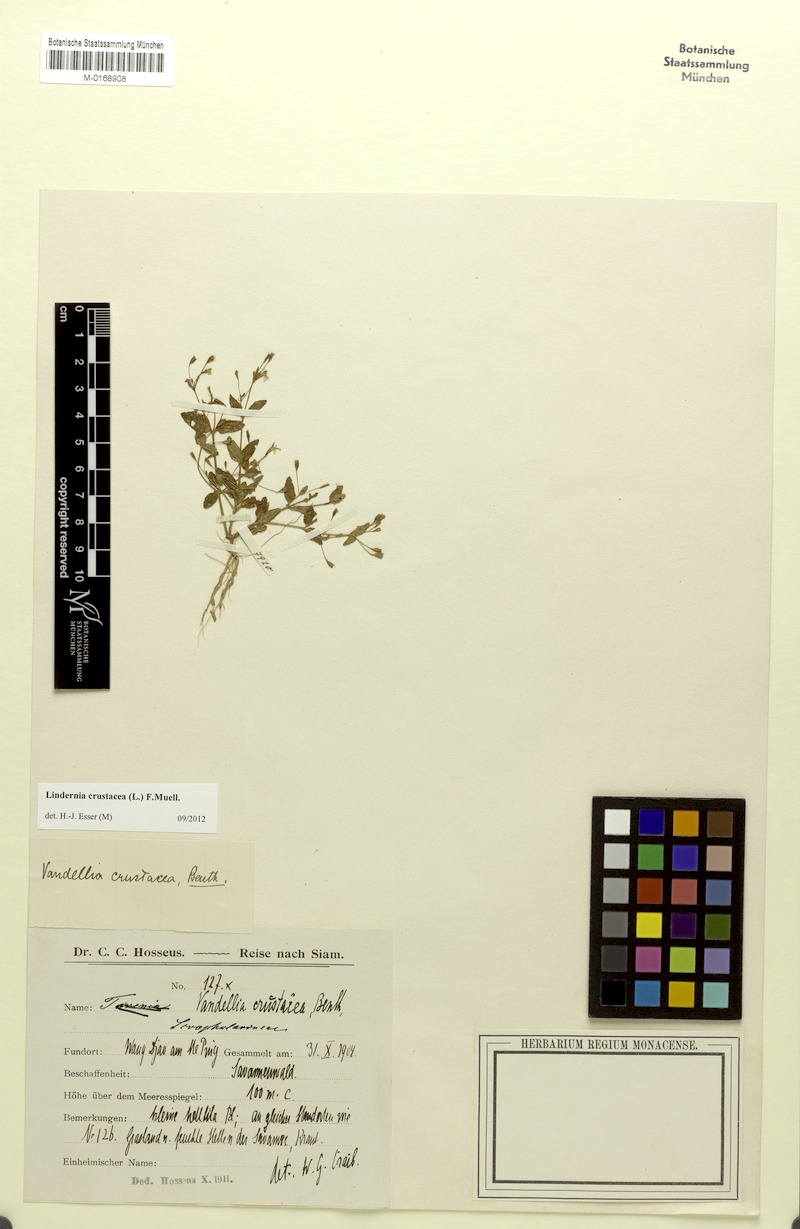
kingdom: Plantae
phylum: Tracheophyta
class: Magnoliopsida
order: Lamiales
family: Linderniaceae
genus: Torenia
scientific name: Torenia crustacea
